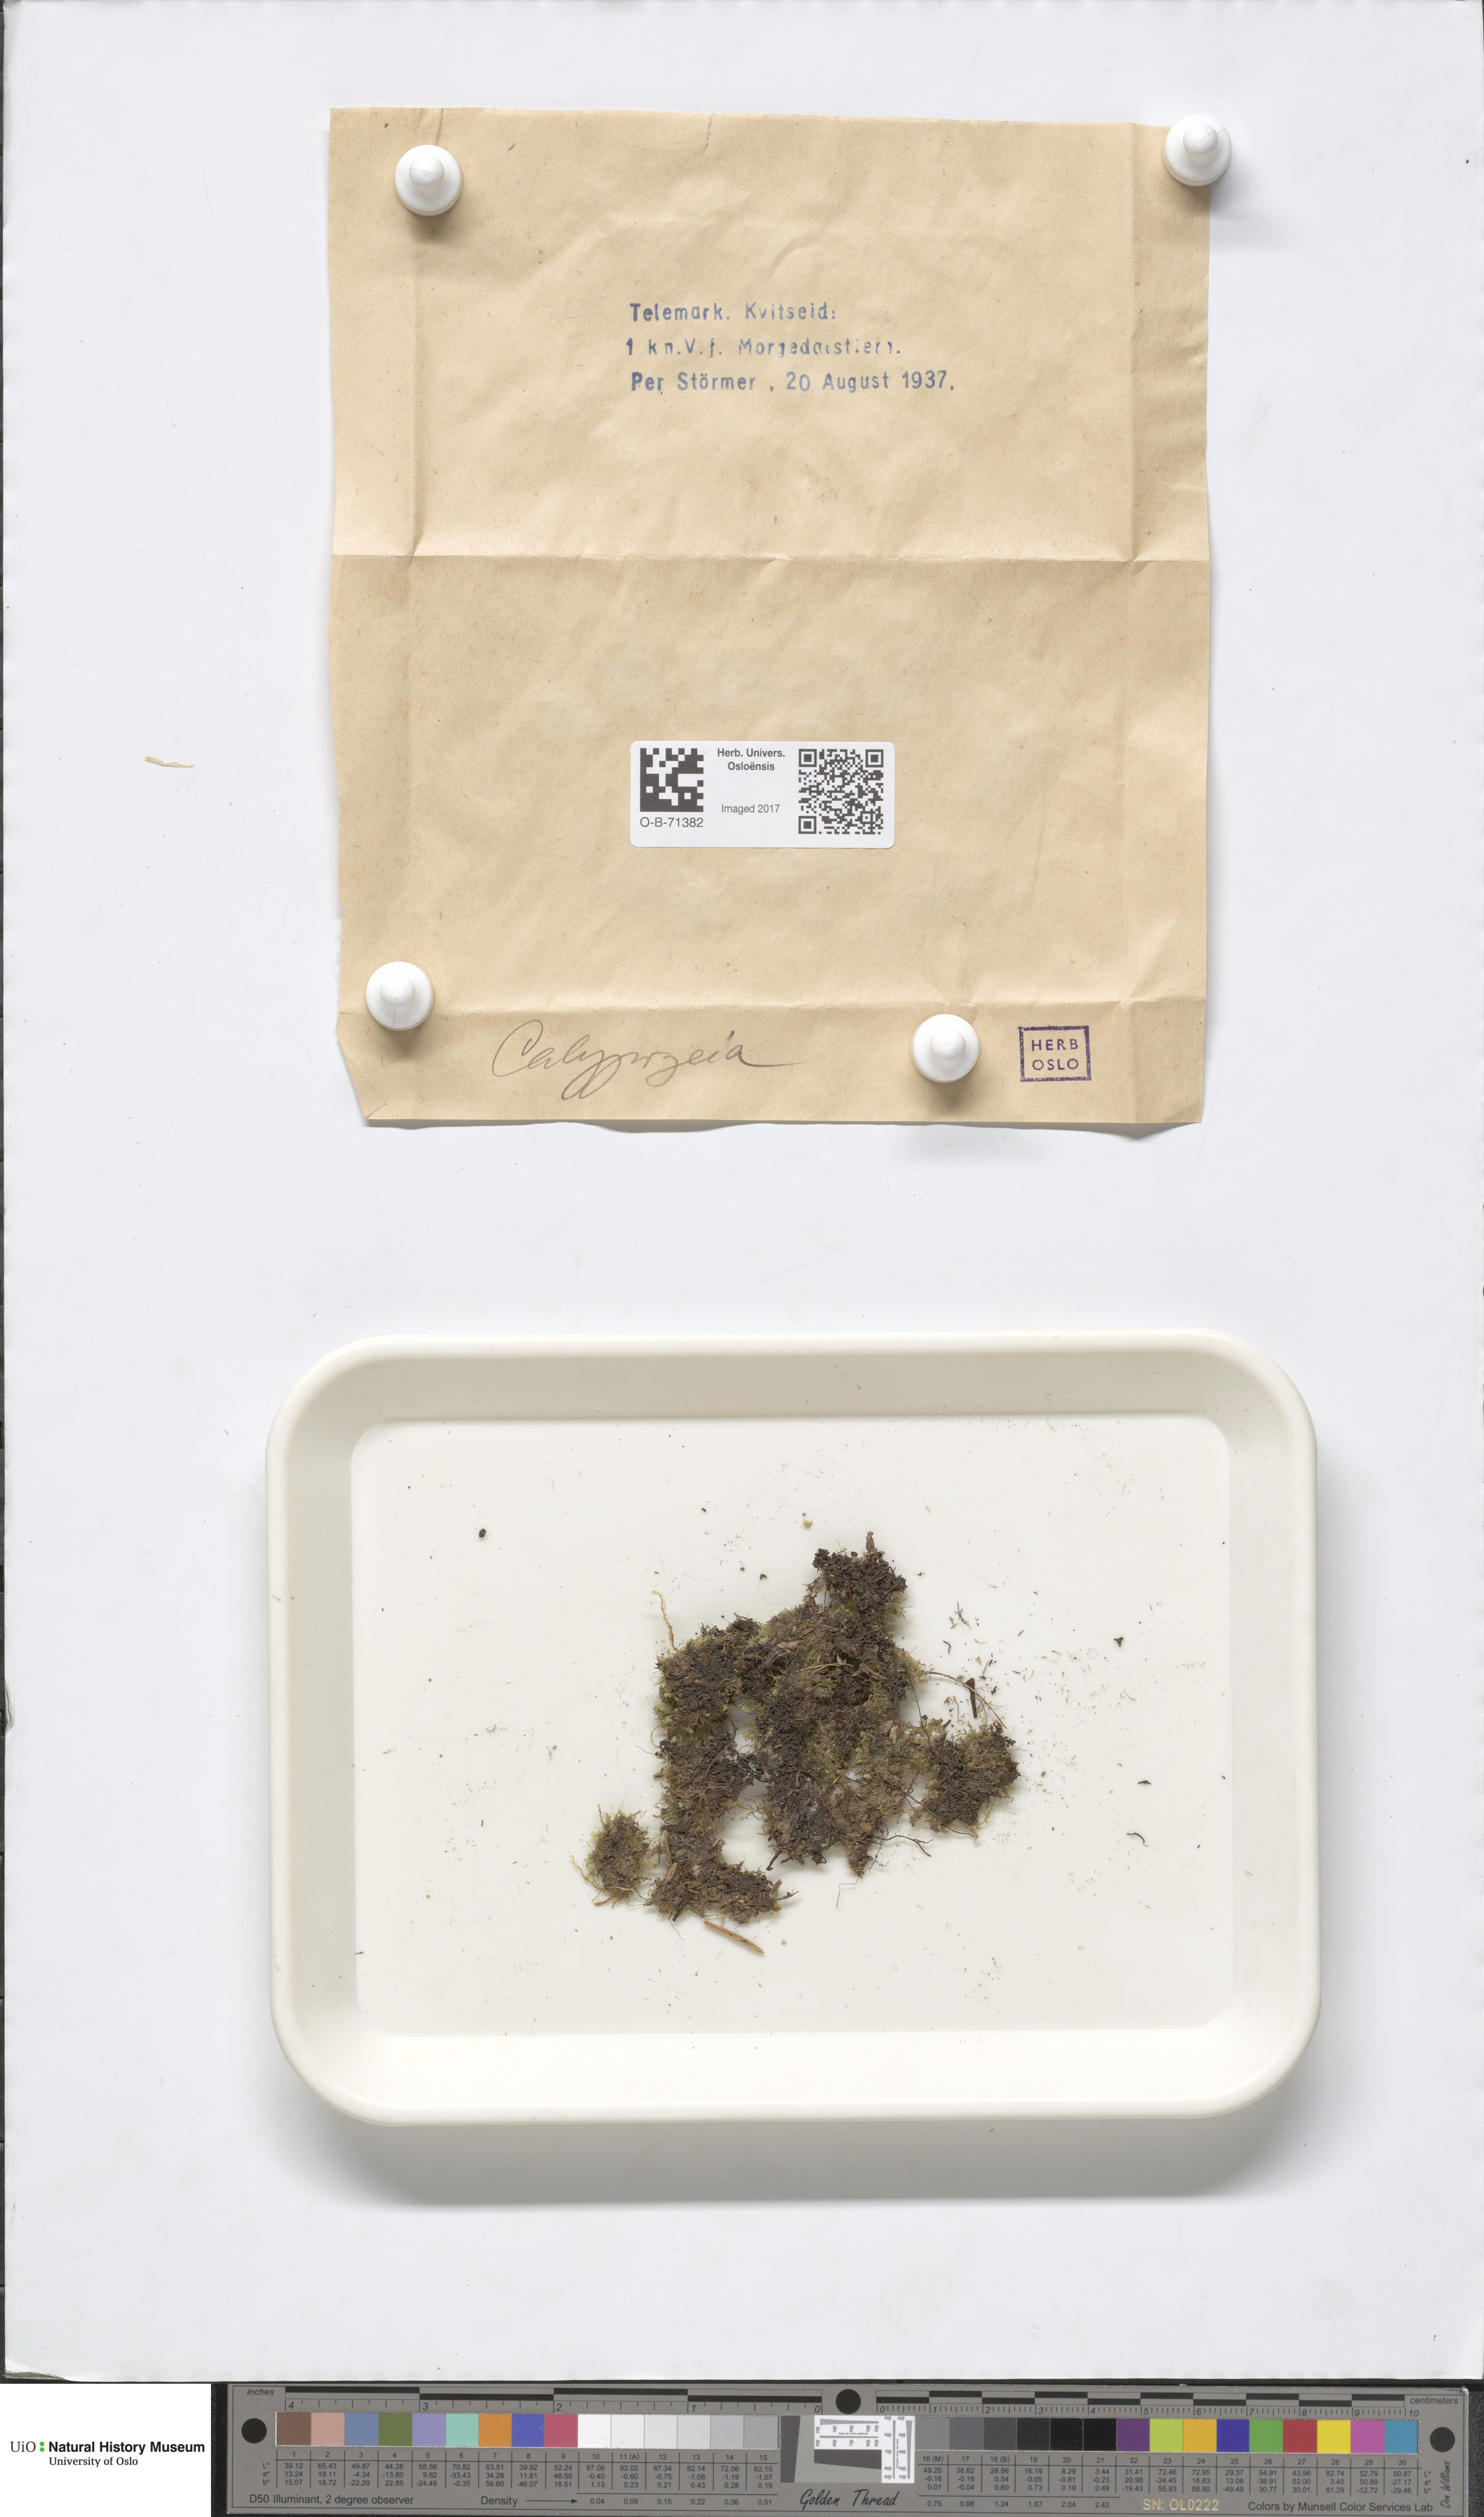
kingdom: Plantae
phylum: Marchantiophyta
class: Jungermanniopsida
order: Jungermanniales
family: Calypogeiaceae
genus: Calypogeia
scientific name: Calypogeia
